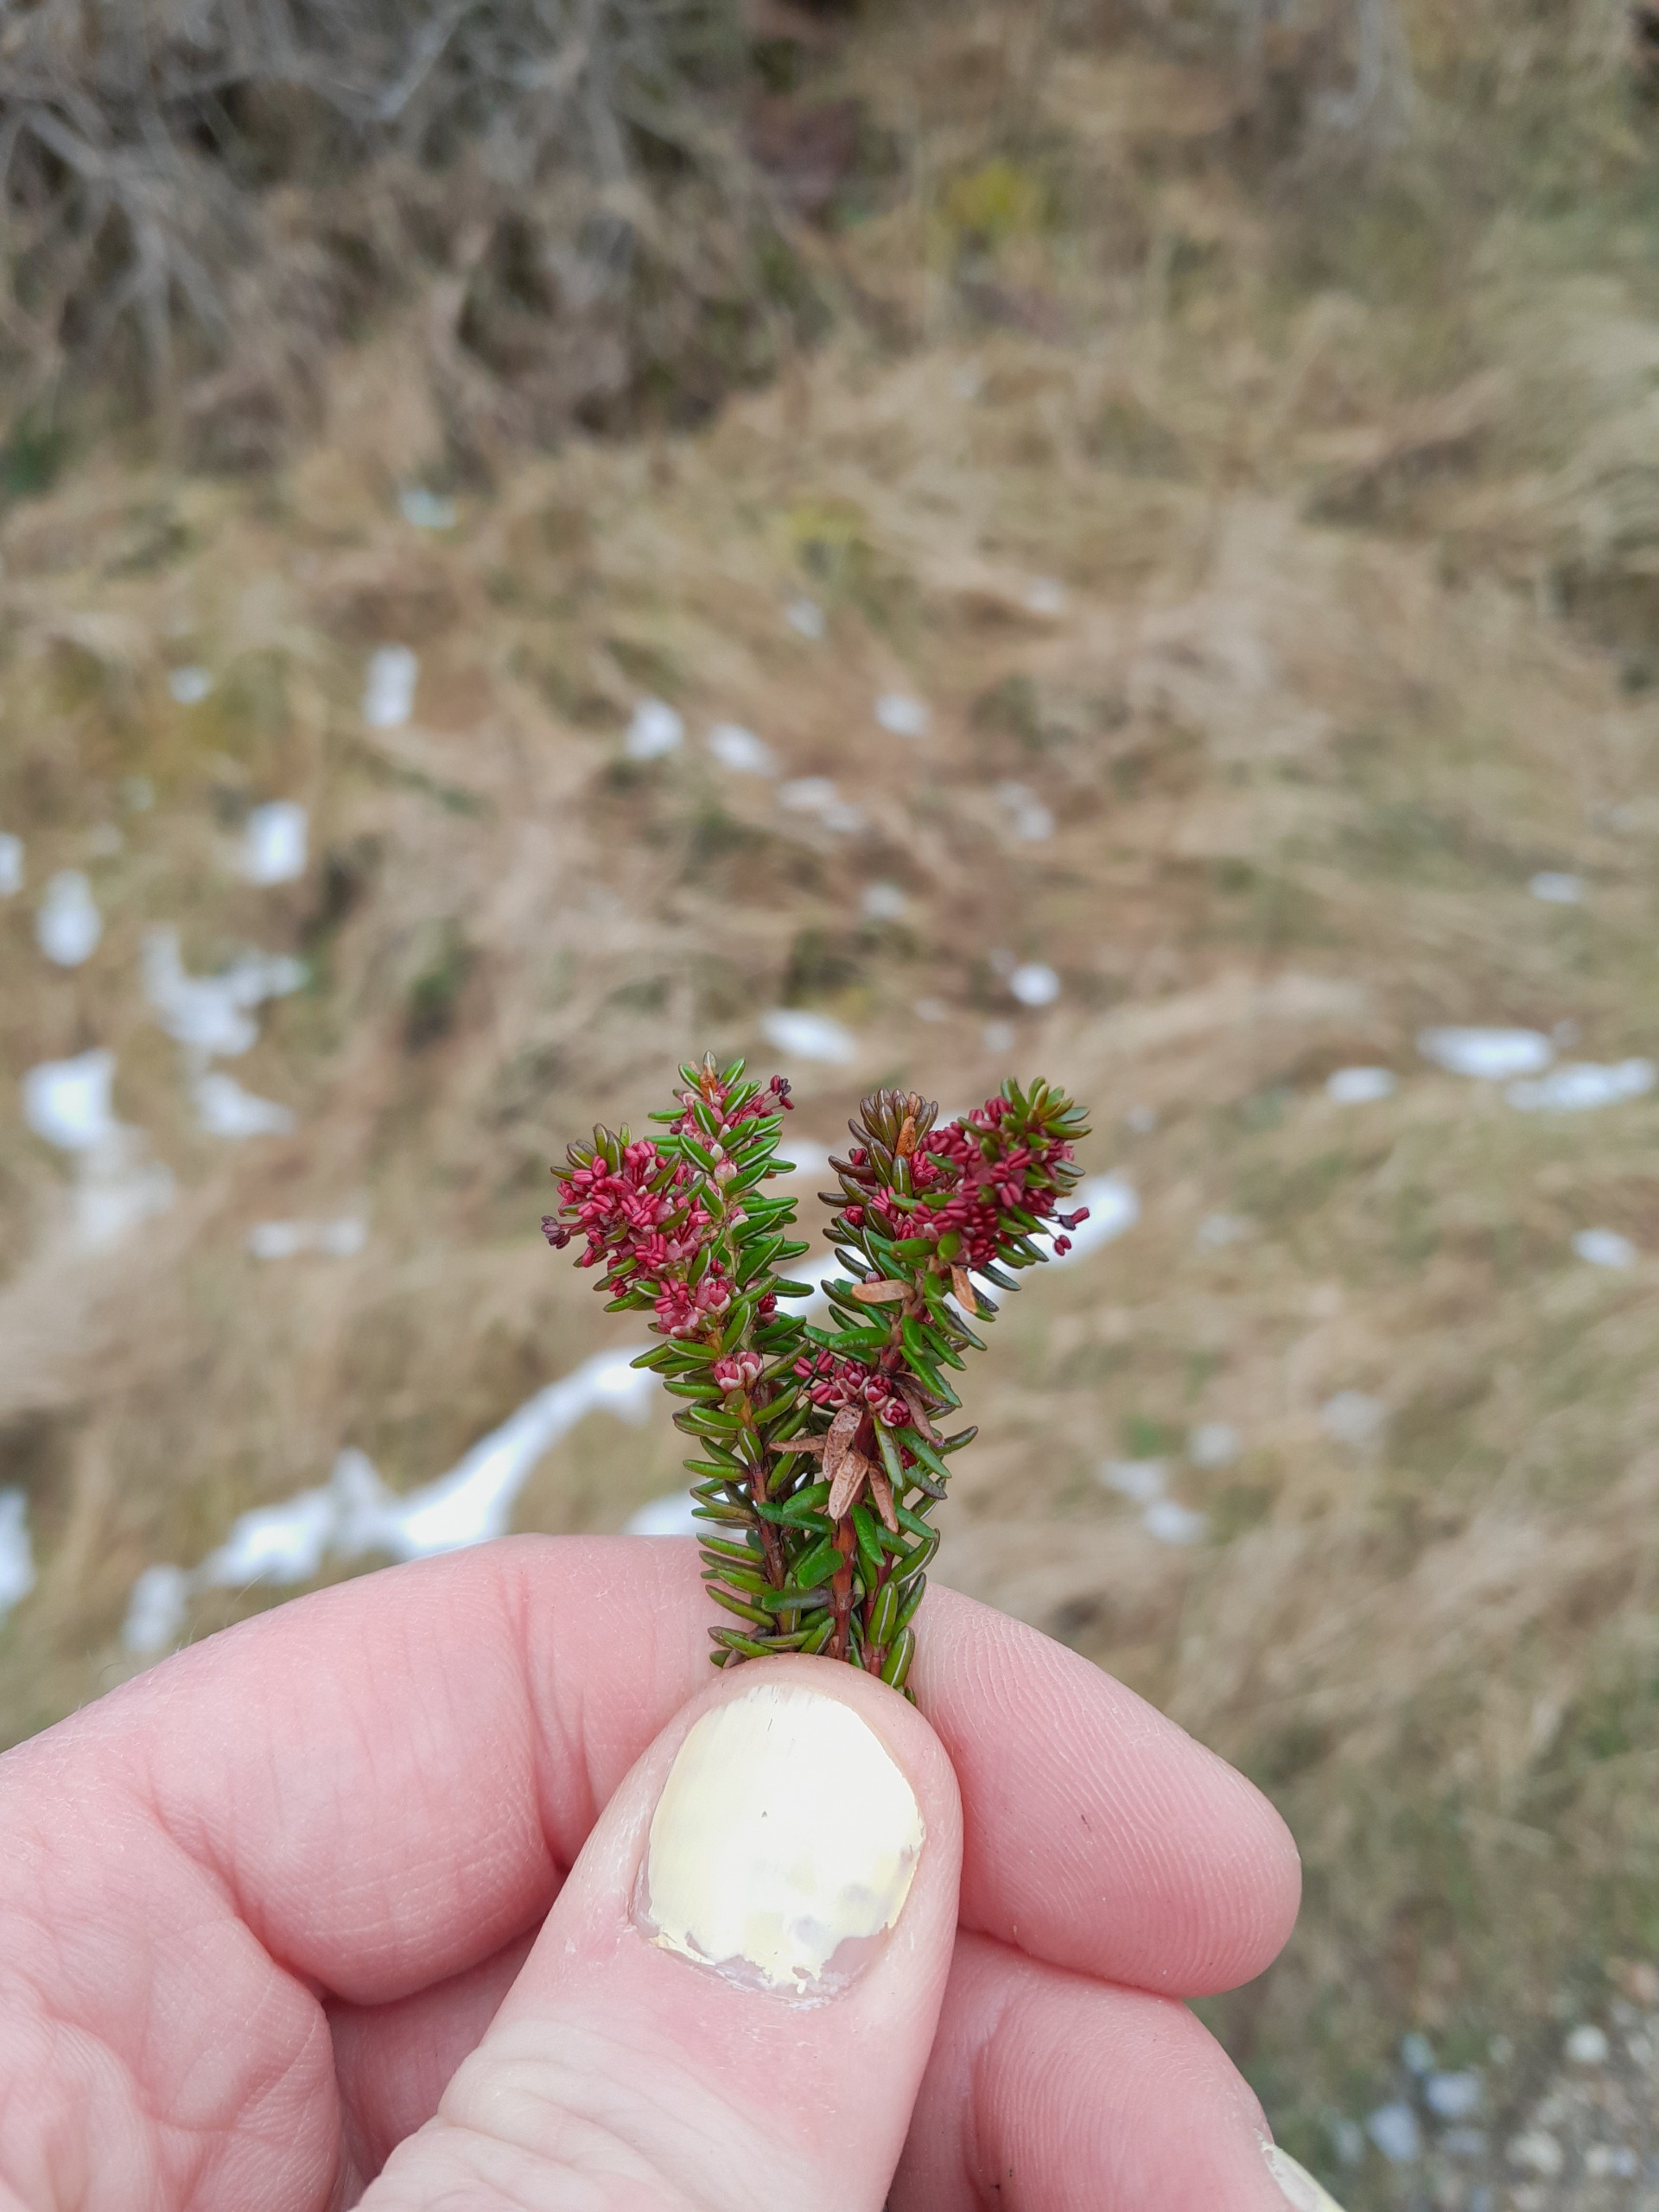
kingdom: Plantae
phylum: Tracheophyta
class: Magnoliopsida
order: Ericales
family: Ericaceae
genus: Empetrum
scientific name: Empetrum nigrum
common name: Revling
